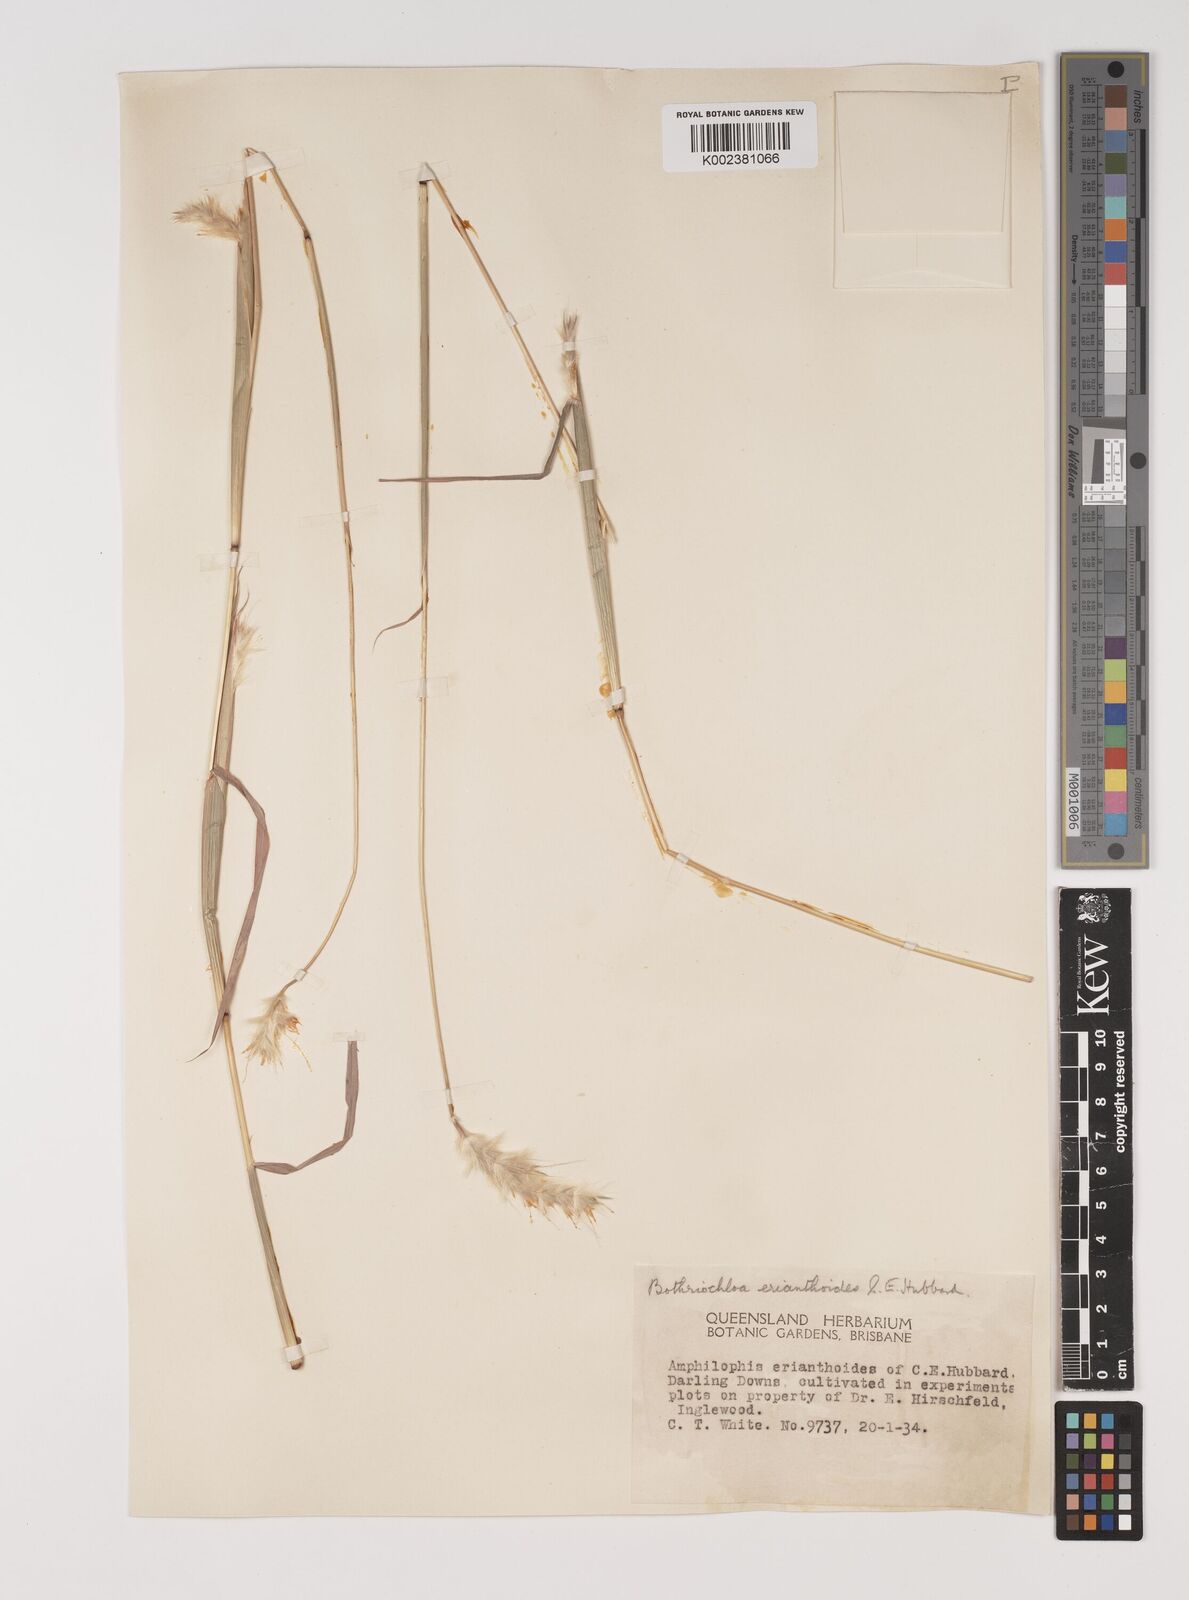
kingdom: Plantae
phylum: Tracheophyta
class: Liliopsida
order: Poales
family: Poaceae
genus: Bothriochloa
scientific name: Bothriochloa erianthoides
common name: Satin-top grass
